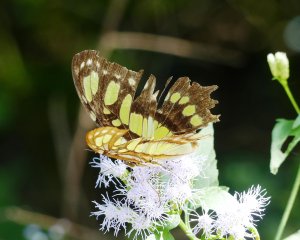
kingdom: Animalia
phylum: Arthropoda
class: Insecta
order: Lepidoptera
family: Nymphalidae
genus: Siproeta
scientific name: Siproeta stelenes
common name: Malachite
